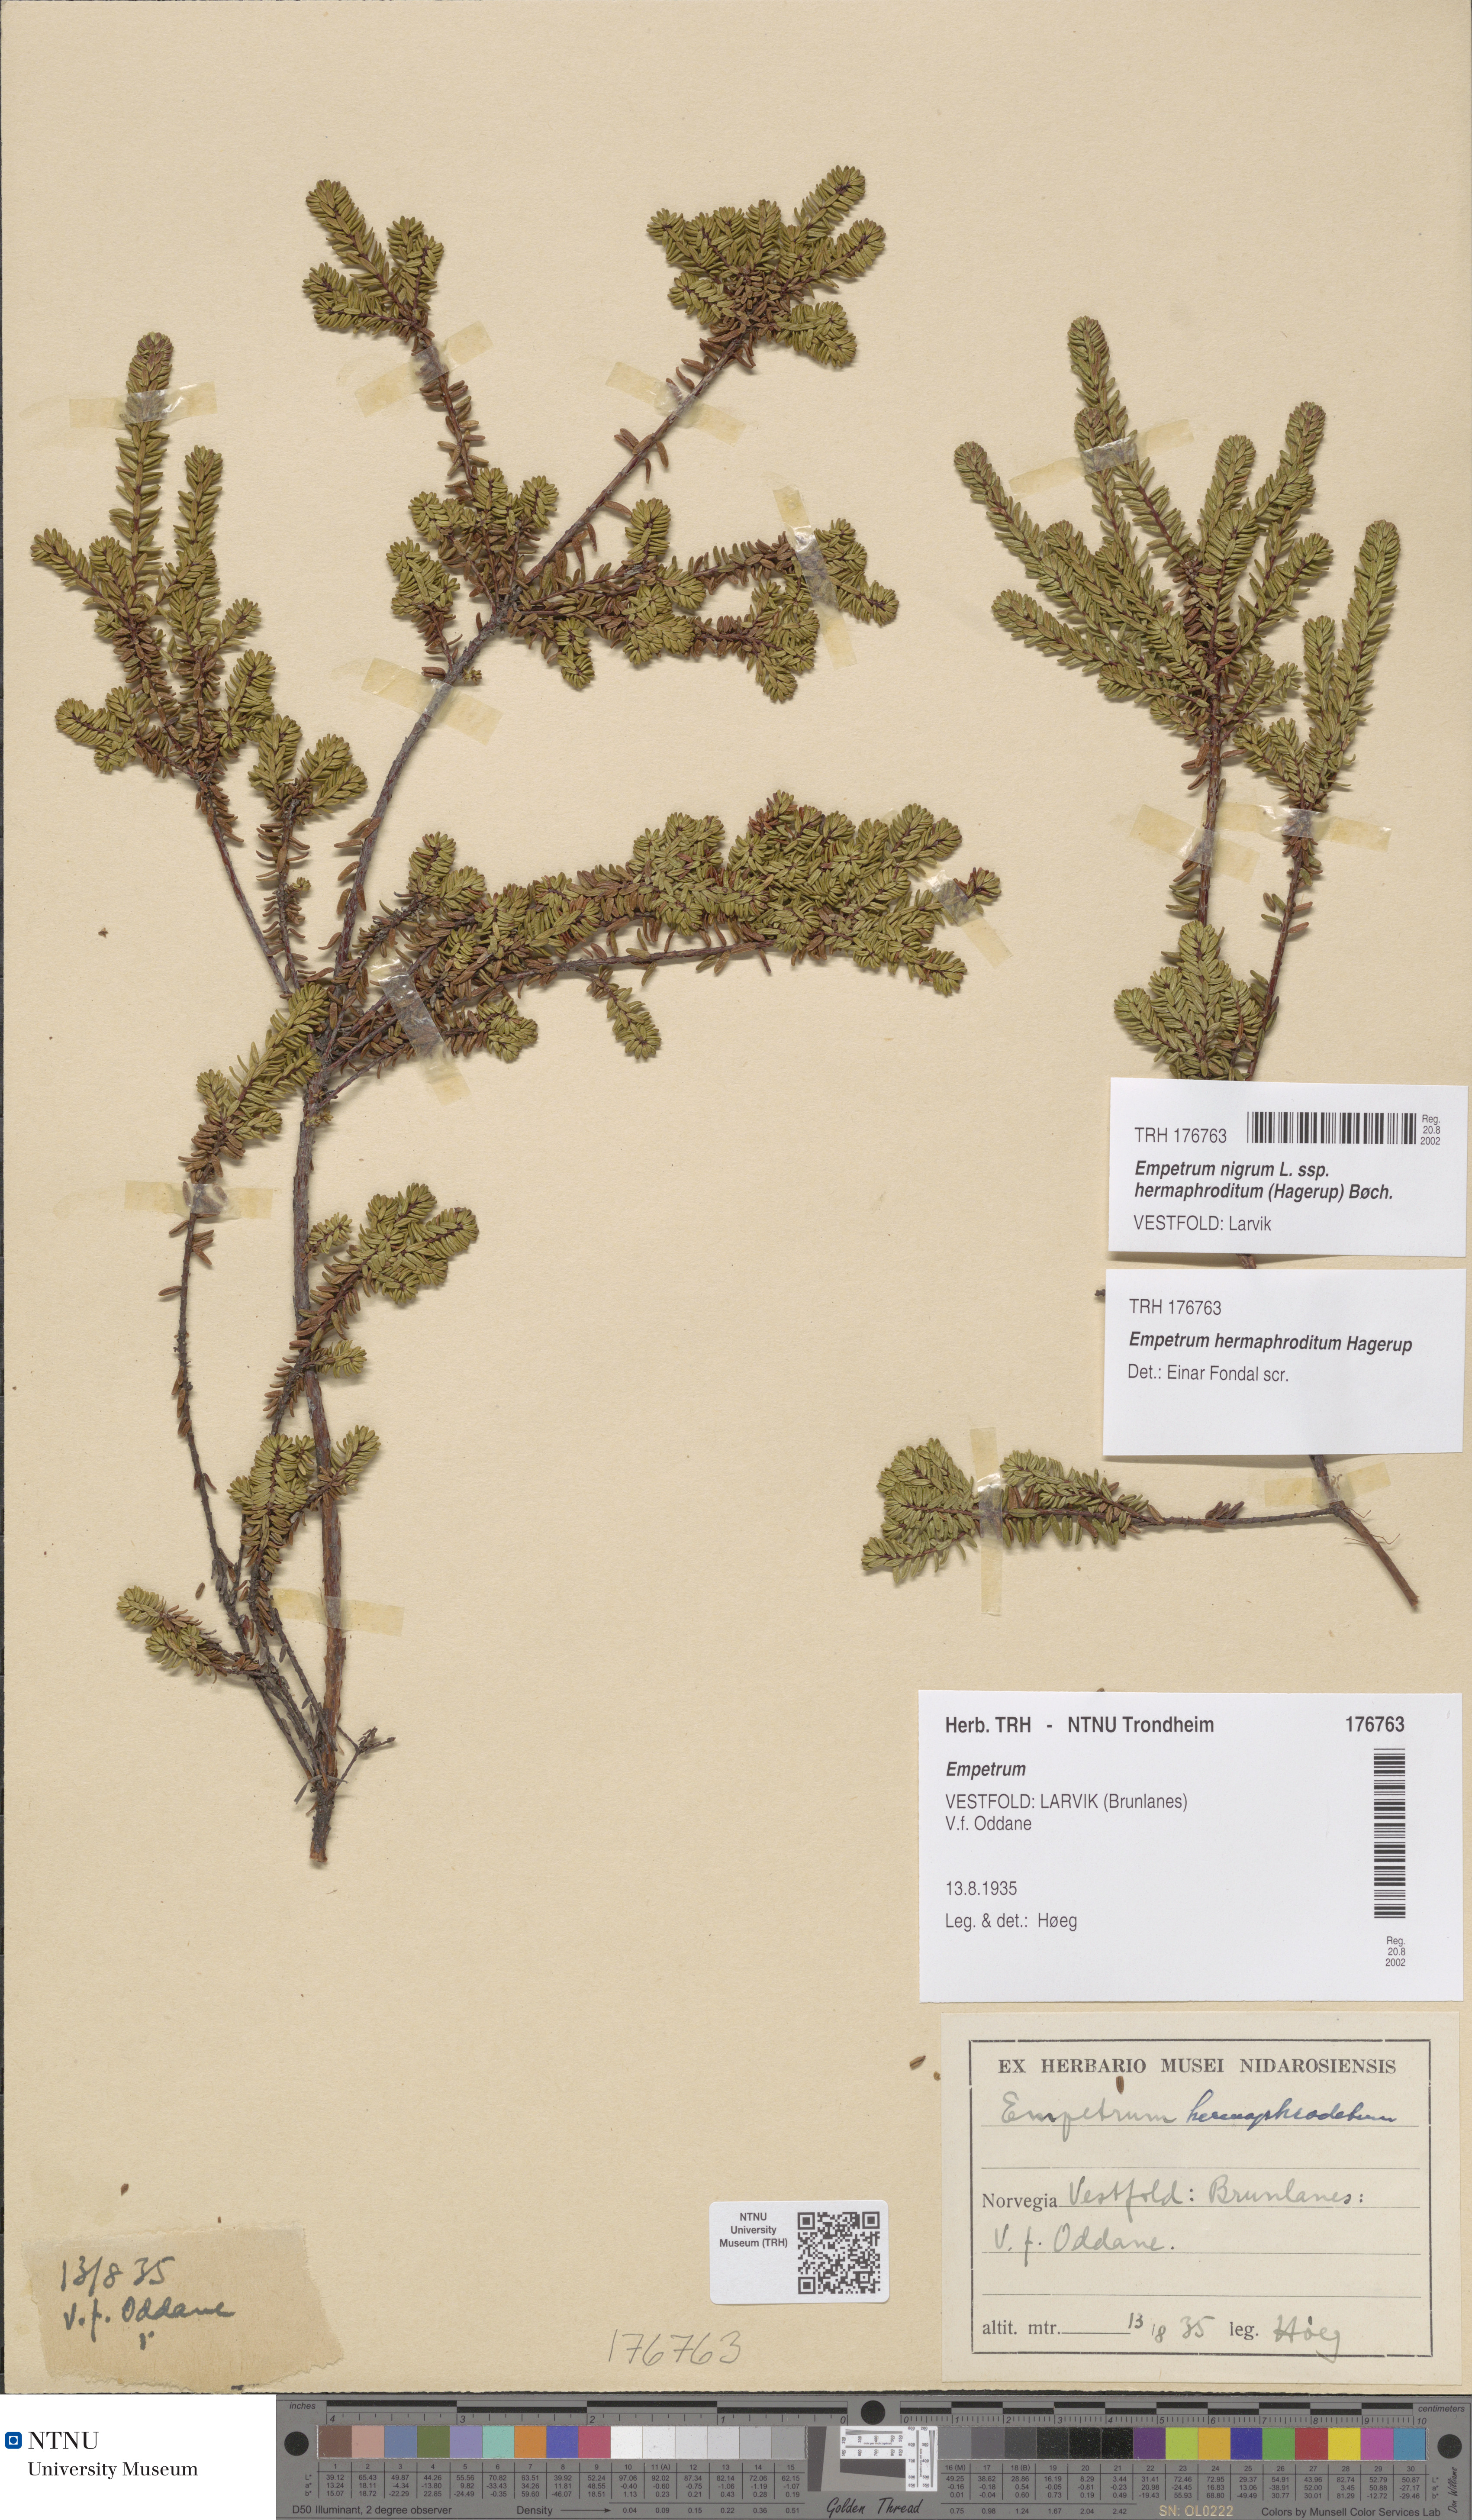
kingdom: Plantae
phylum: Tracheophyta
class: Magnoliopsida
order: Ericales
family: Ericaceae
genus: Empetrum
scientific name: Empetrum hermaphroditum
